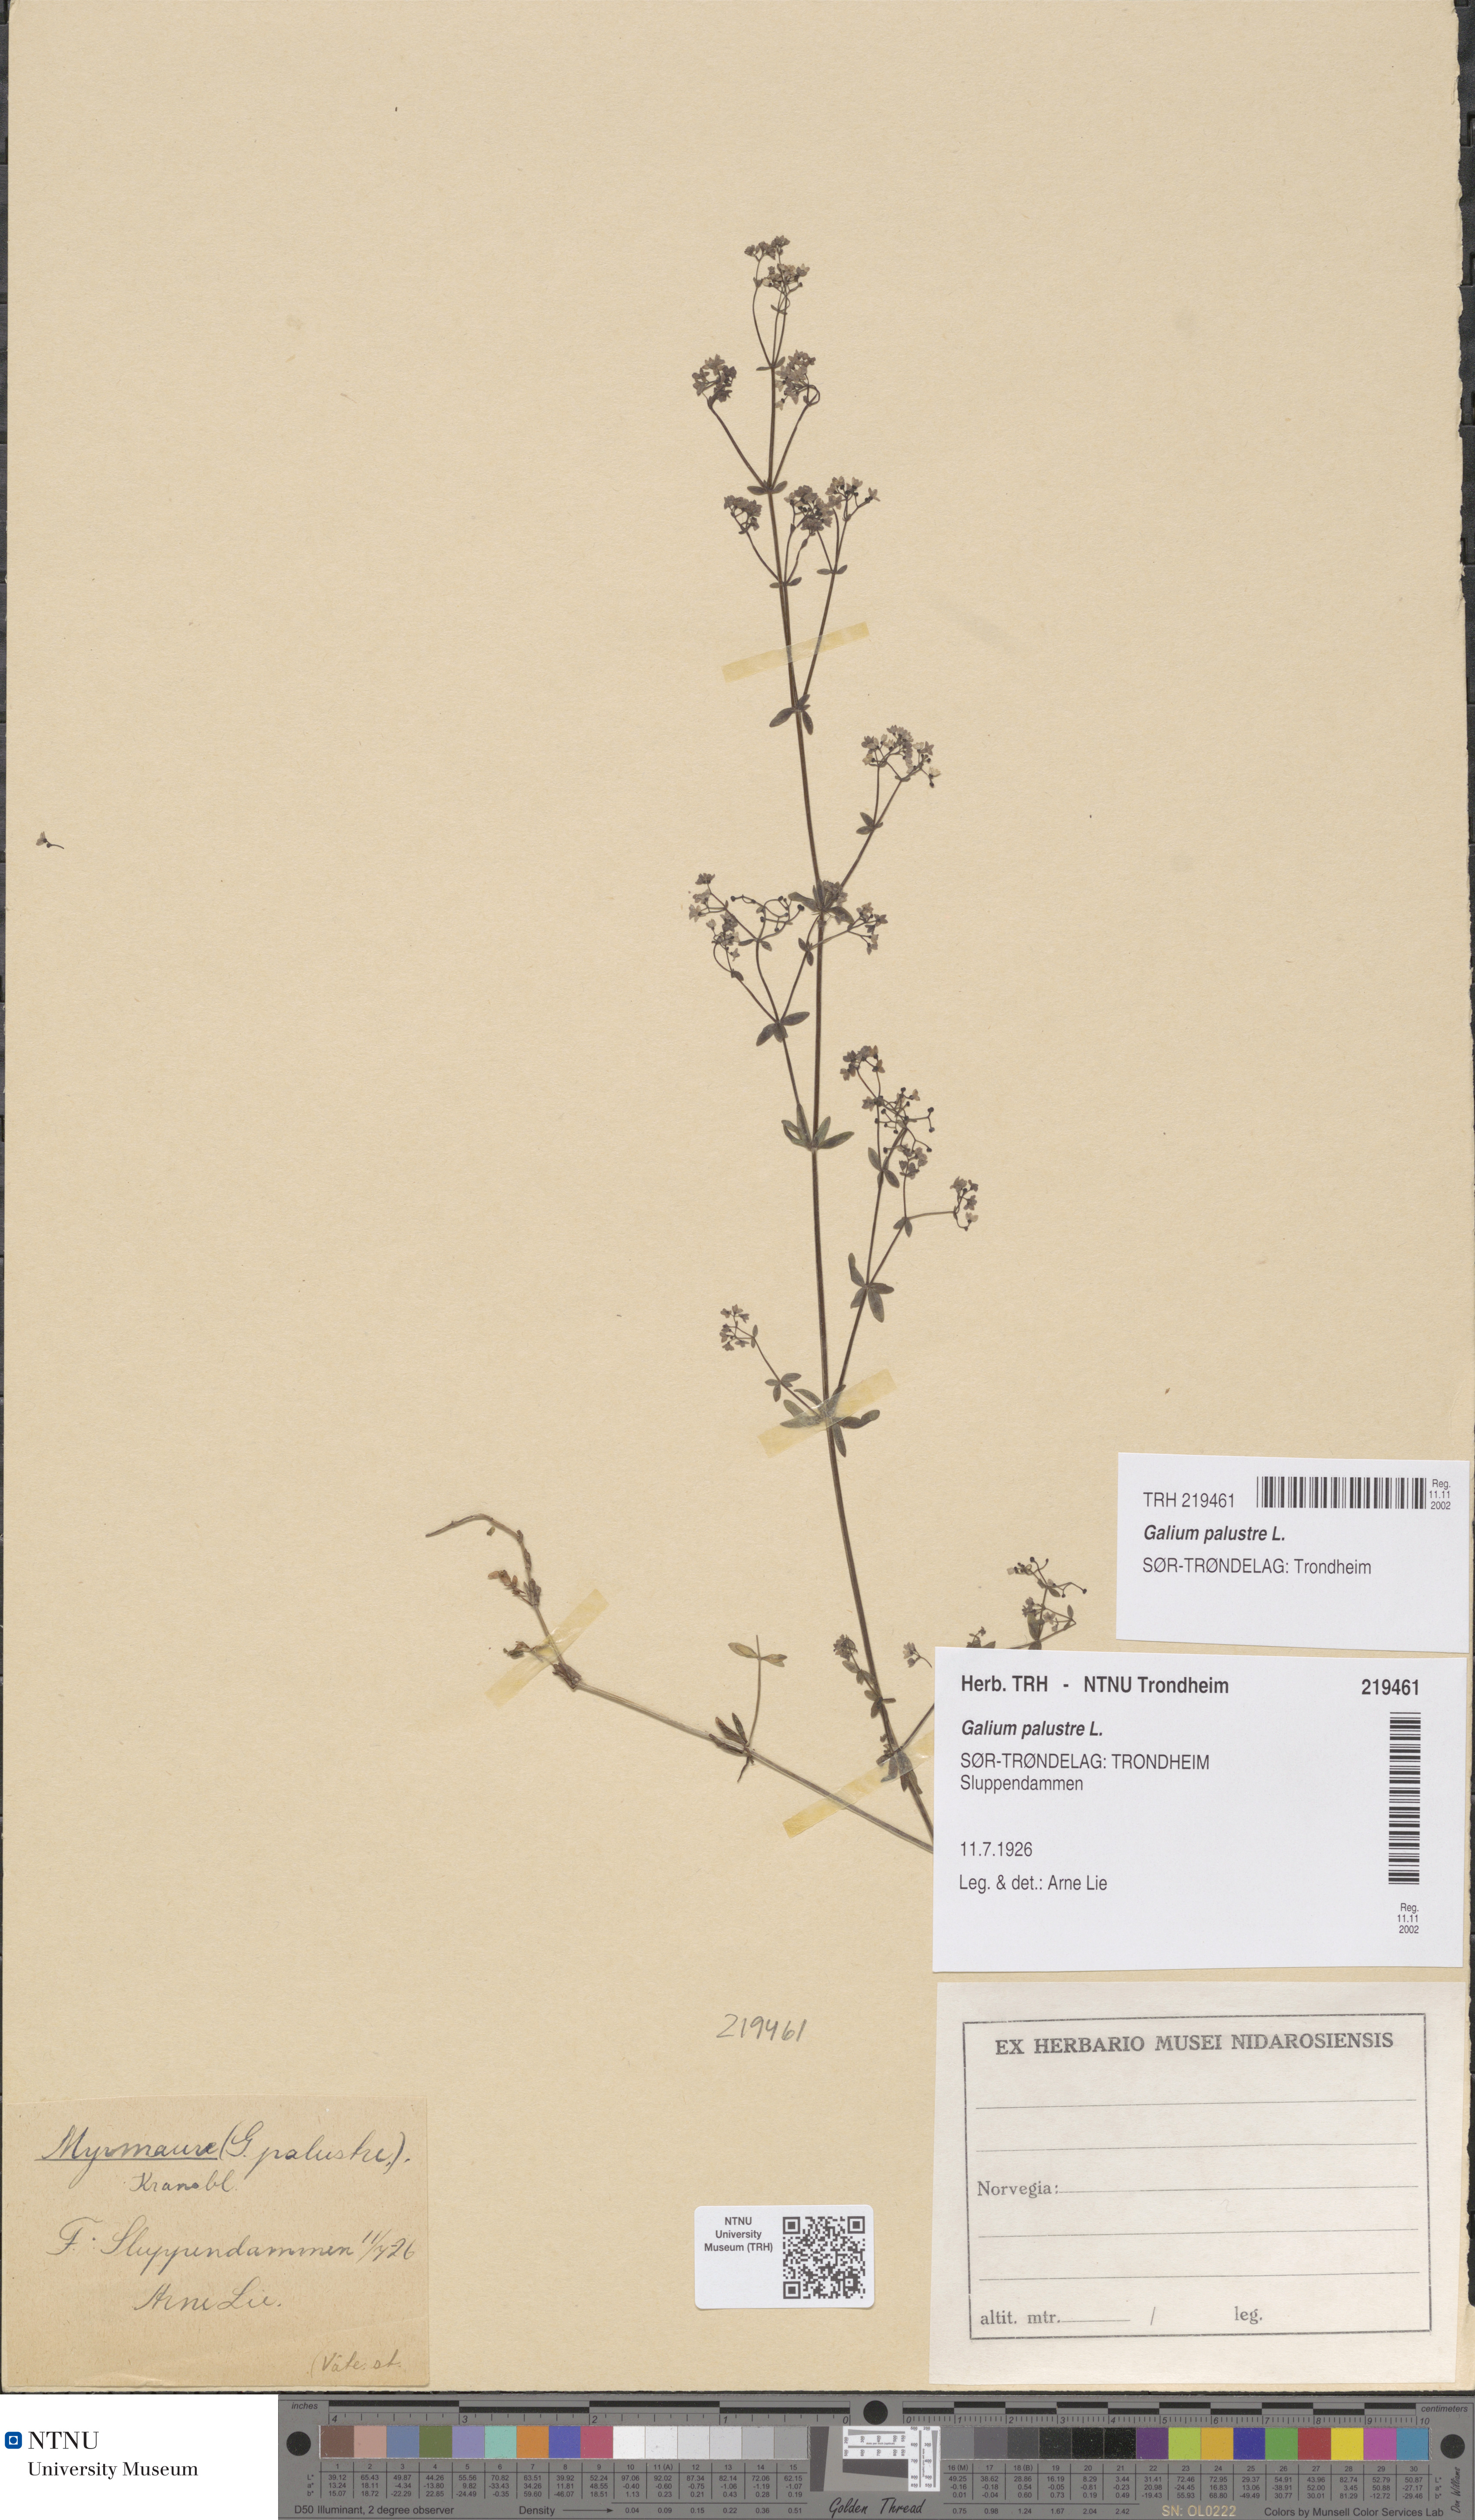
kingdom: Plantae
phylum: Tracheophyta
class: Magnoliopsida
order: Gentianales
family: Rubiaceae
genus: Galium
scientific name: Galium palustre
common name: Common marsh-bedstraw
